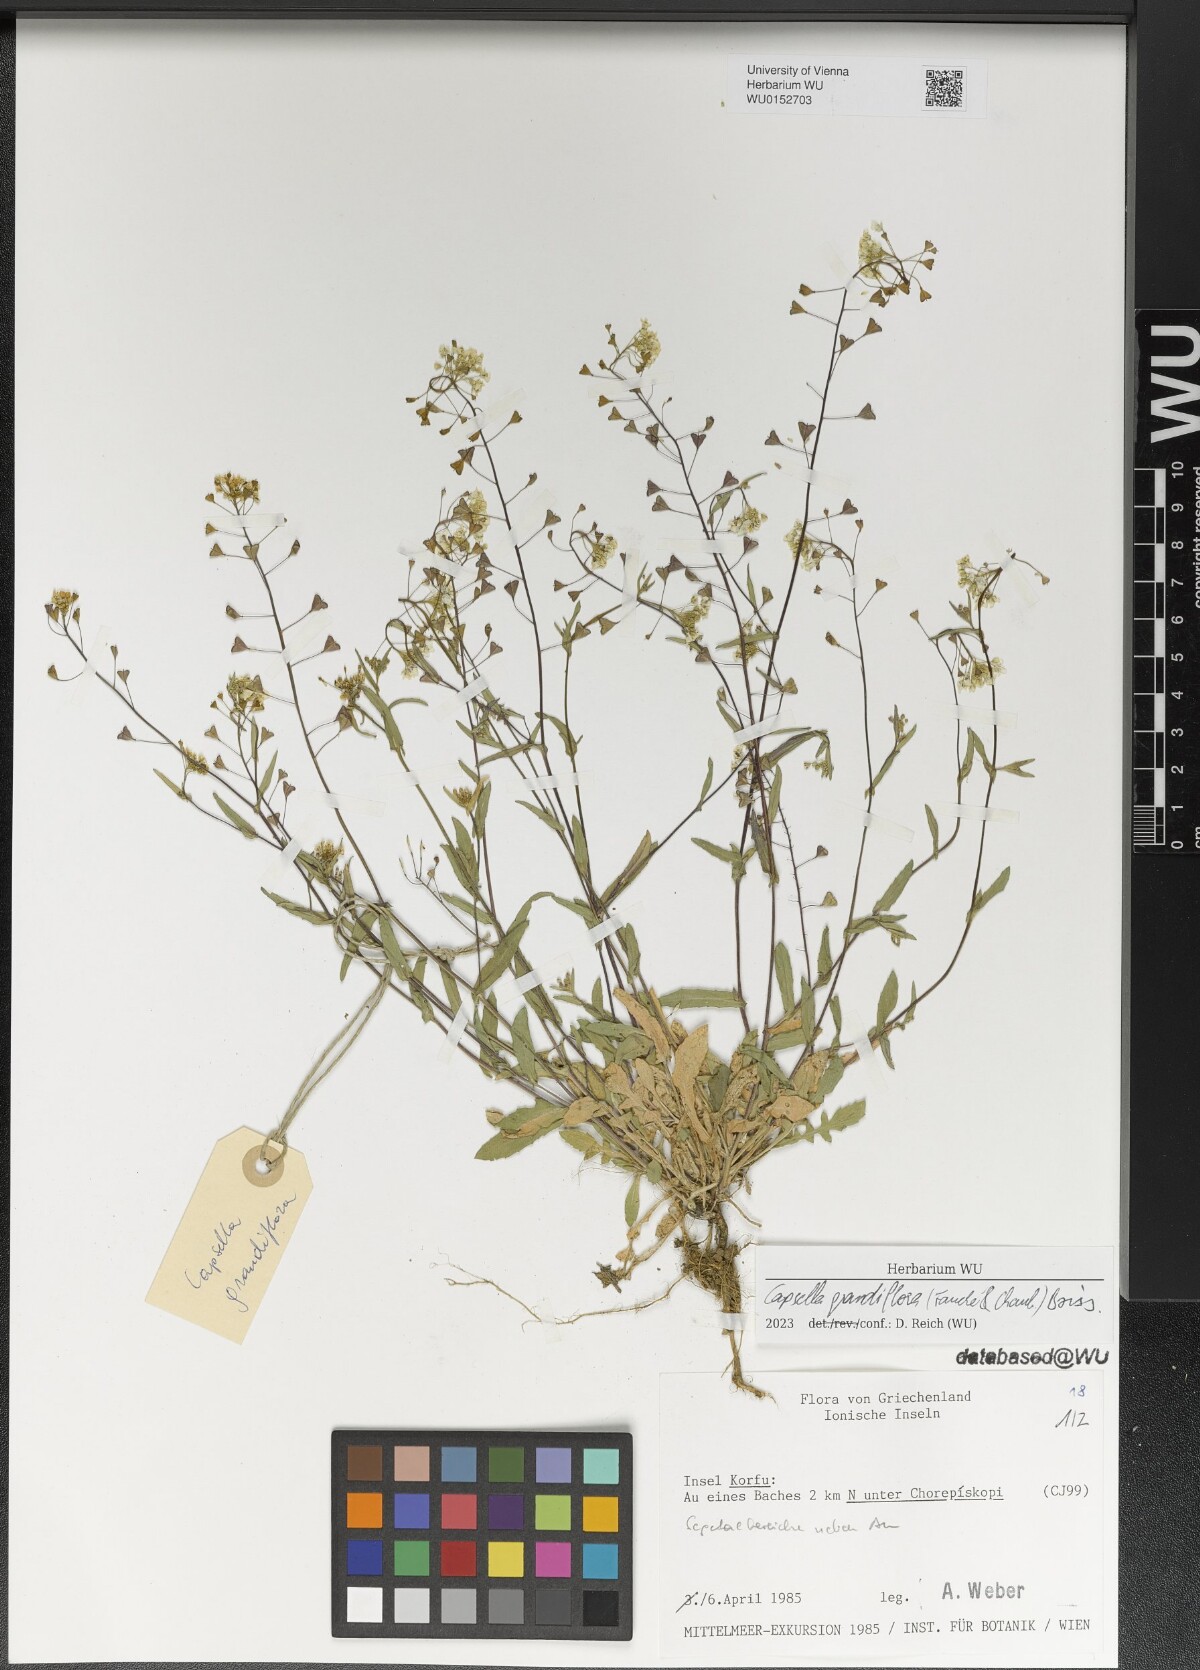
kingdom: Plantae
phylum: Tracheophyta
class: Magnoliopsida
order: Brassicales
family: Brassicaceae
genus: Capsella
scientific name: Capsella grandiflora
